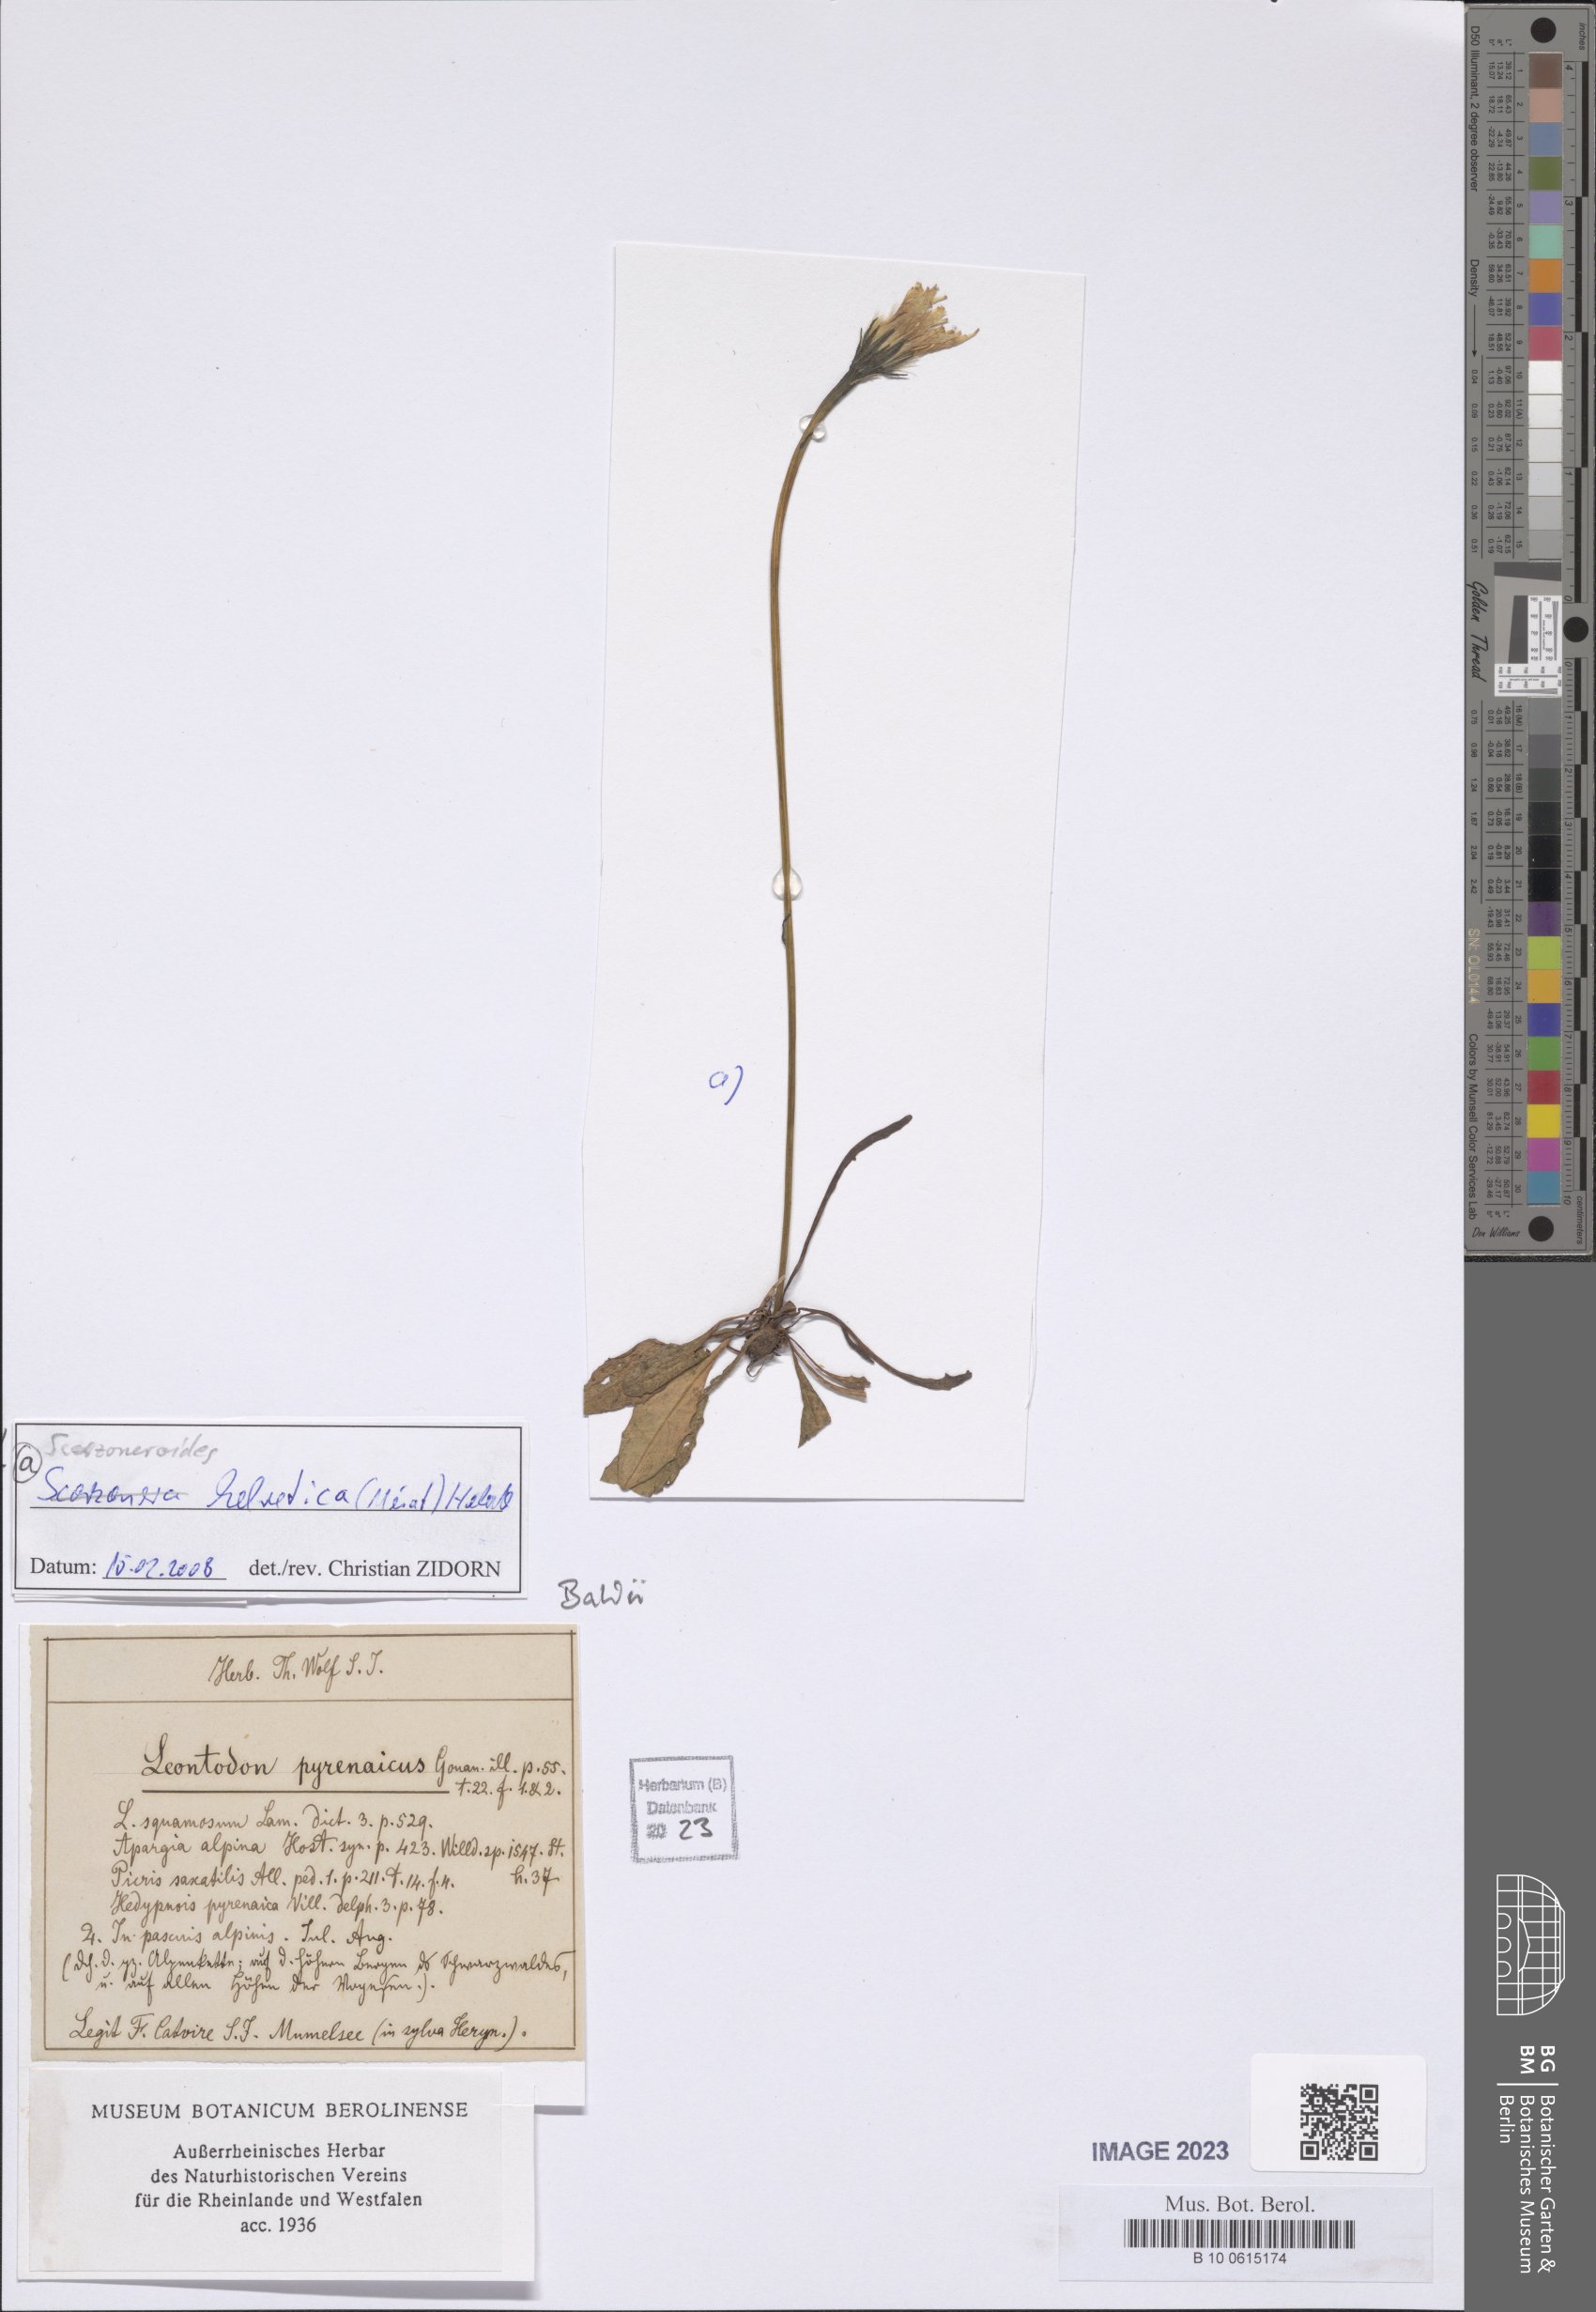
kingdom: Plantae
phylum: Tracheophyta
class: Magnoliopsida
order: Asterales
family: Asteraceae
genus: Scorzoneroides
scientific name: Scorzoneroides helvetica
